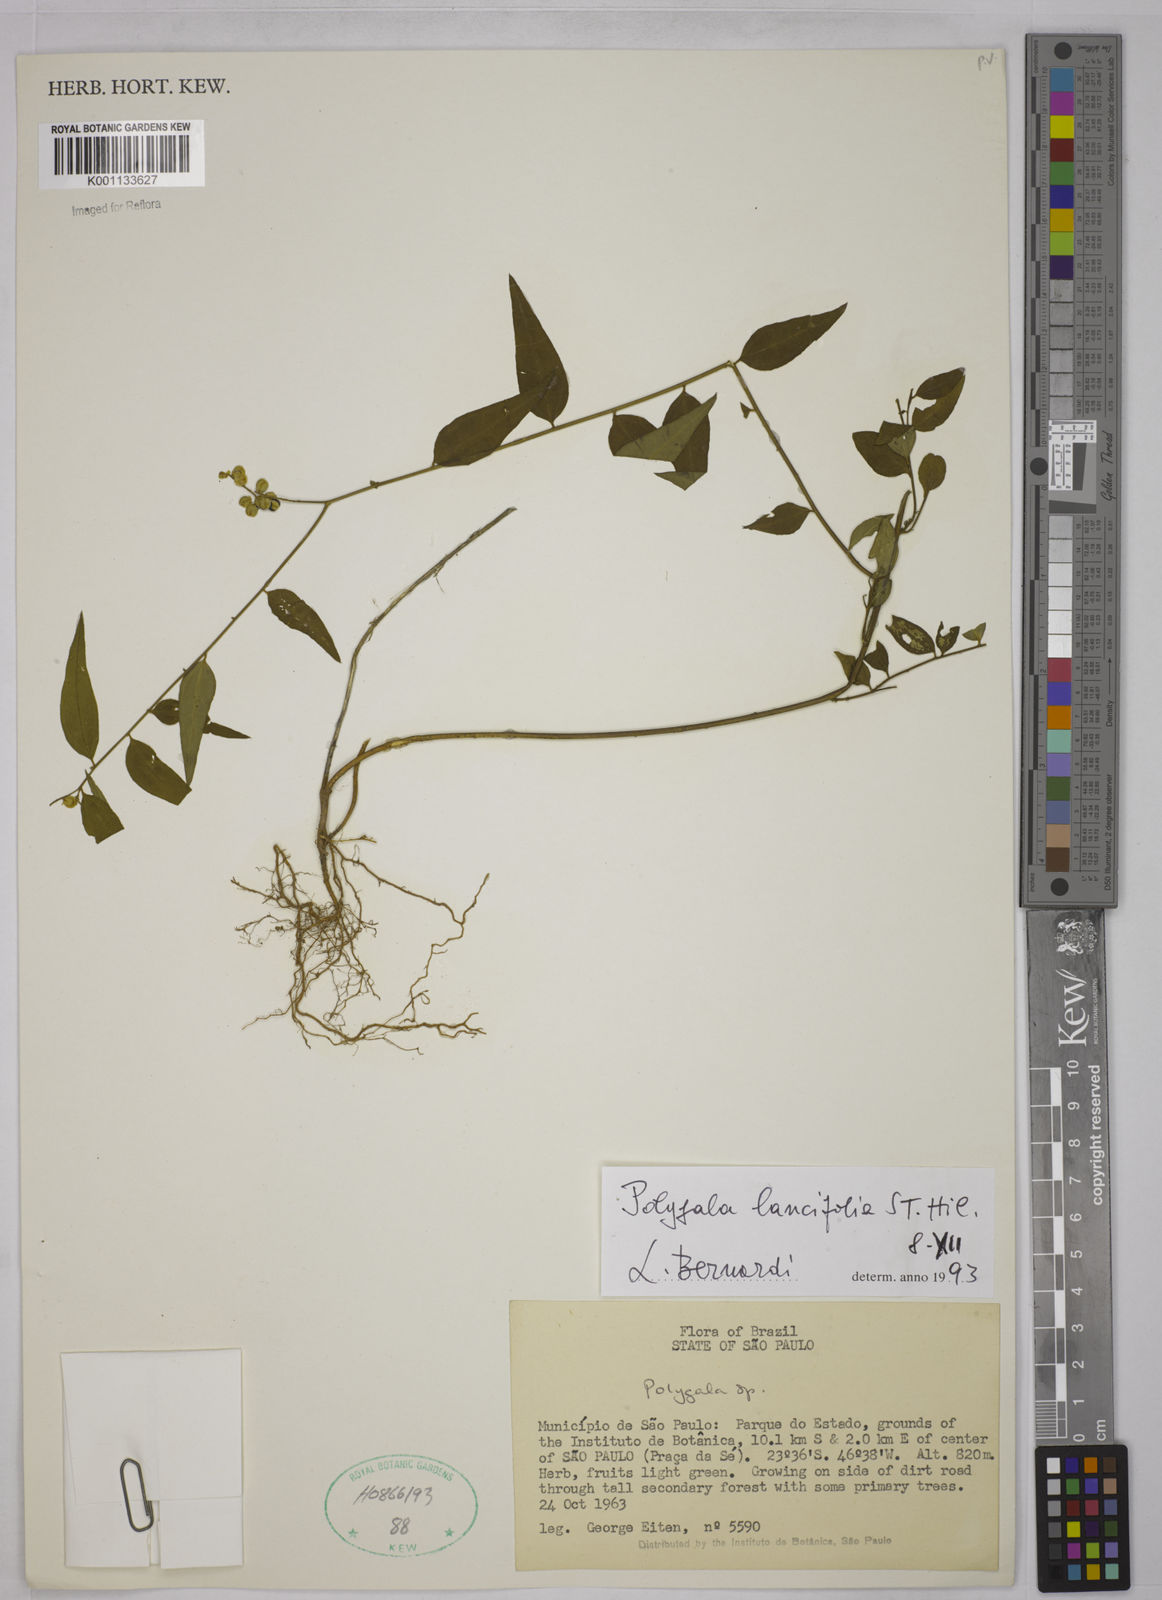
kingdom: Plantae
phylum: Tracheophyta
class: Magnoliopsida
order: Fabales
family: Polygalaceae
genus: Polygala
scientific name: Polygala lancifolia
